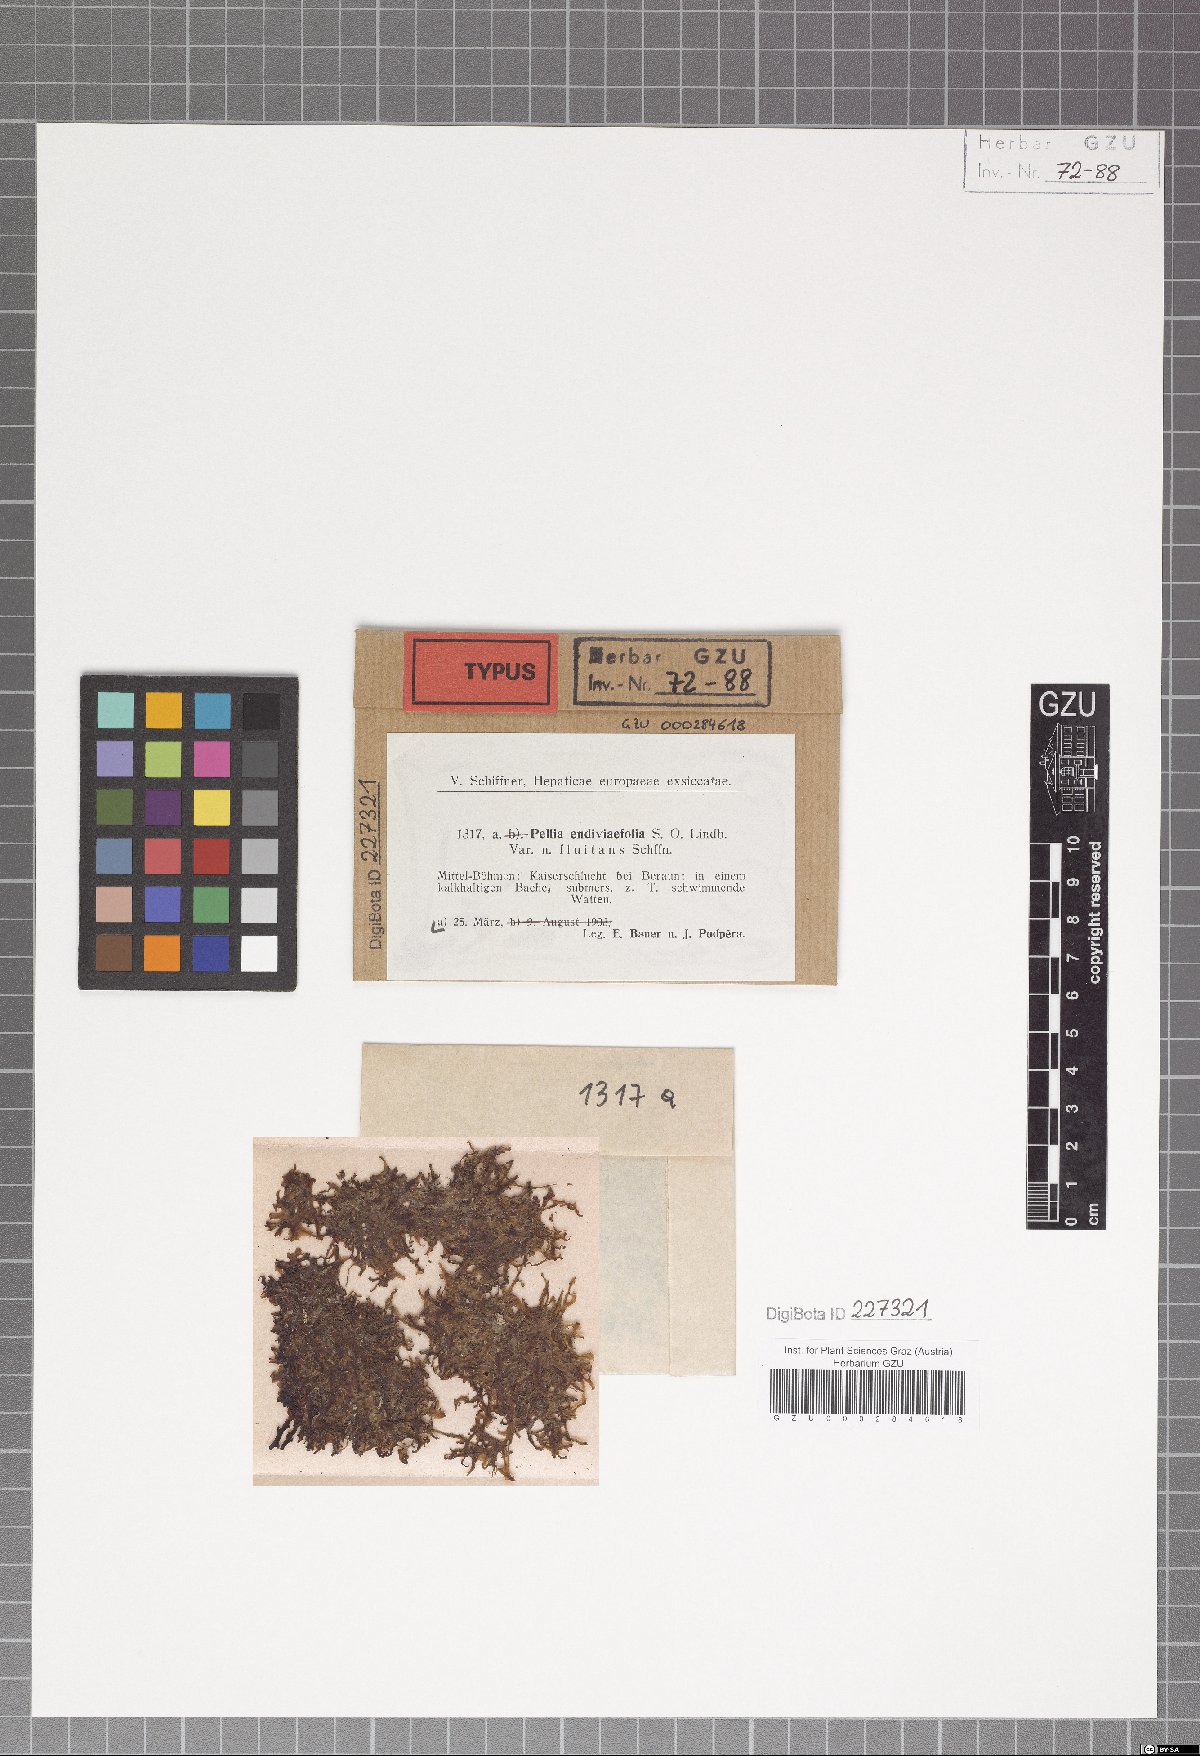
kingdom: Plantae
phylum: Marchantiophyta
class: Jungermanniopsida
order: Pelliales
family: Pelliaceae
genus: Apopellia
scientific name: Apopellia endiviifolia
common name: Endive pellia
